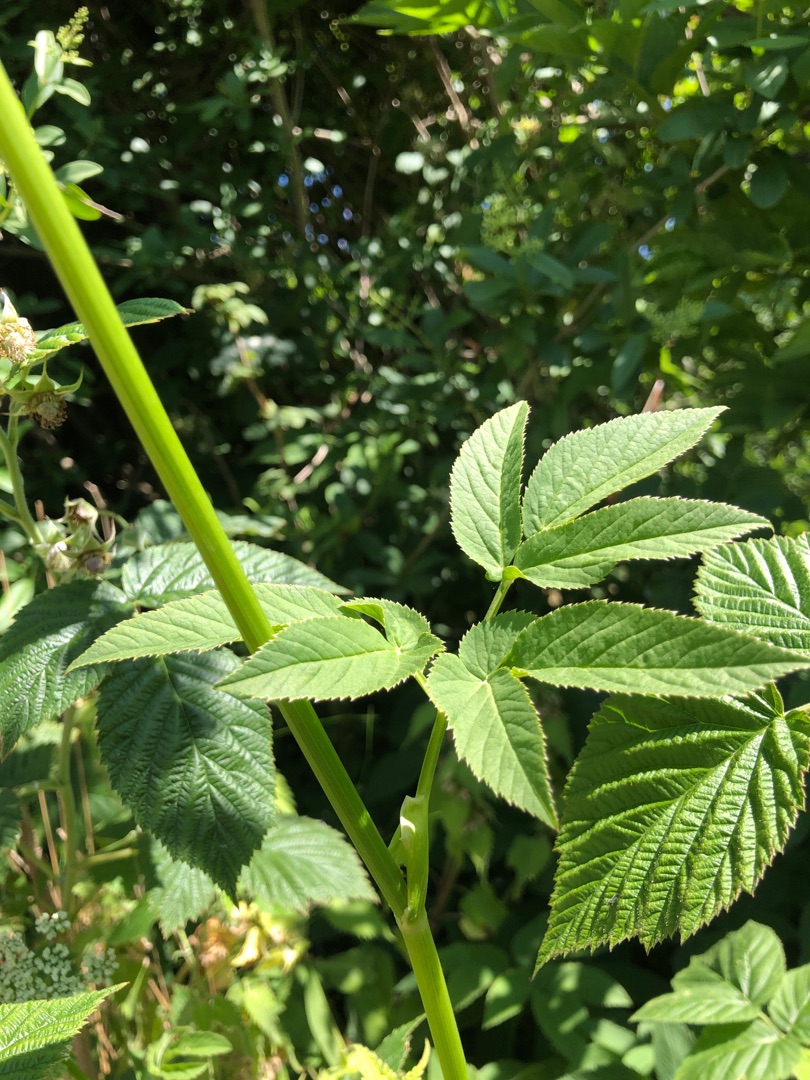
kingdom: Plantae
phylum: Tracheophyta
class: Magnoliopsida
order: Apiales
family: Apiaceae
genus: Aegopodium
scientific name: Aegopodium podagraria
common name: Skvalderkål
